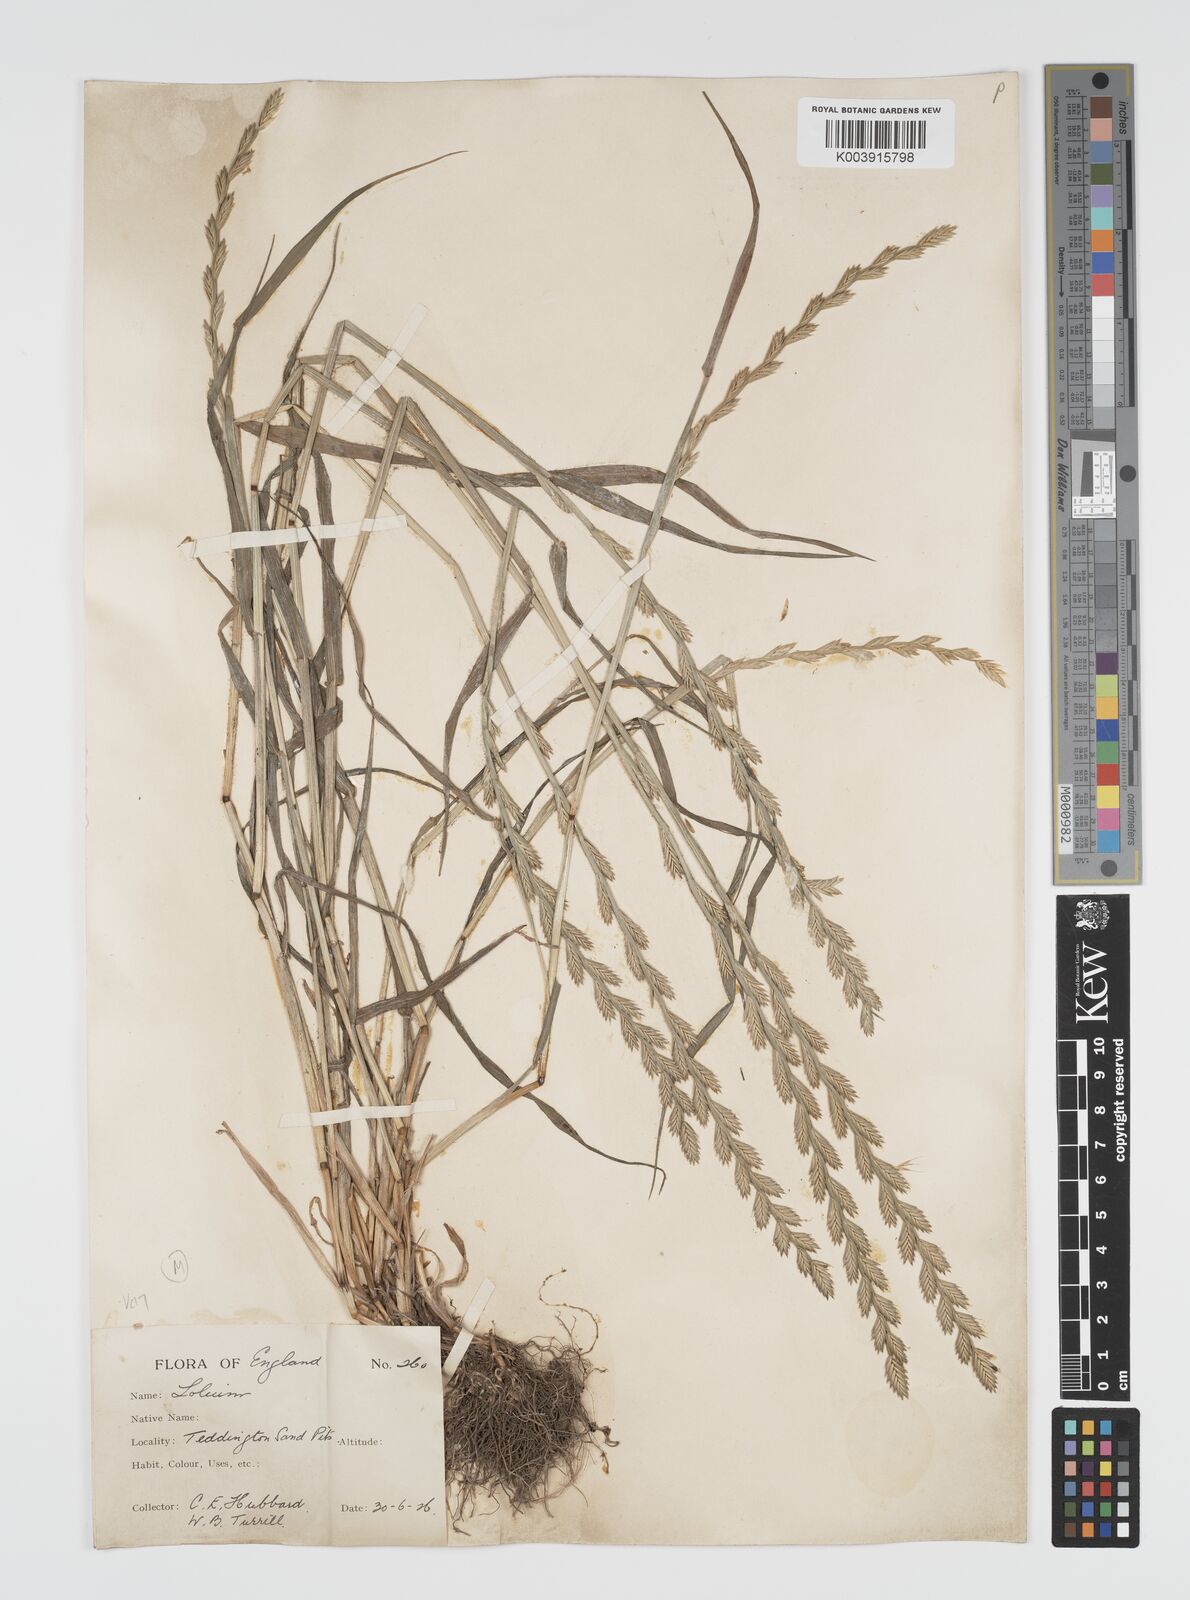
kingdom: Plantae
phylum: Tracheophyta
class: Liliopsida
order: Poales
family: Poaceae
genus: Lolium
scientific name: Lolium multiflorum
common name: Annual ryegrass
